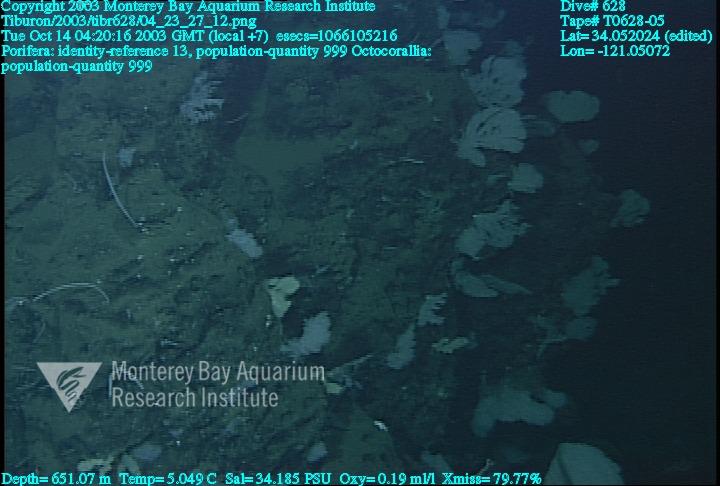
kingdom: Animalia
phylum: Porifera
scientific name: Porifera
